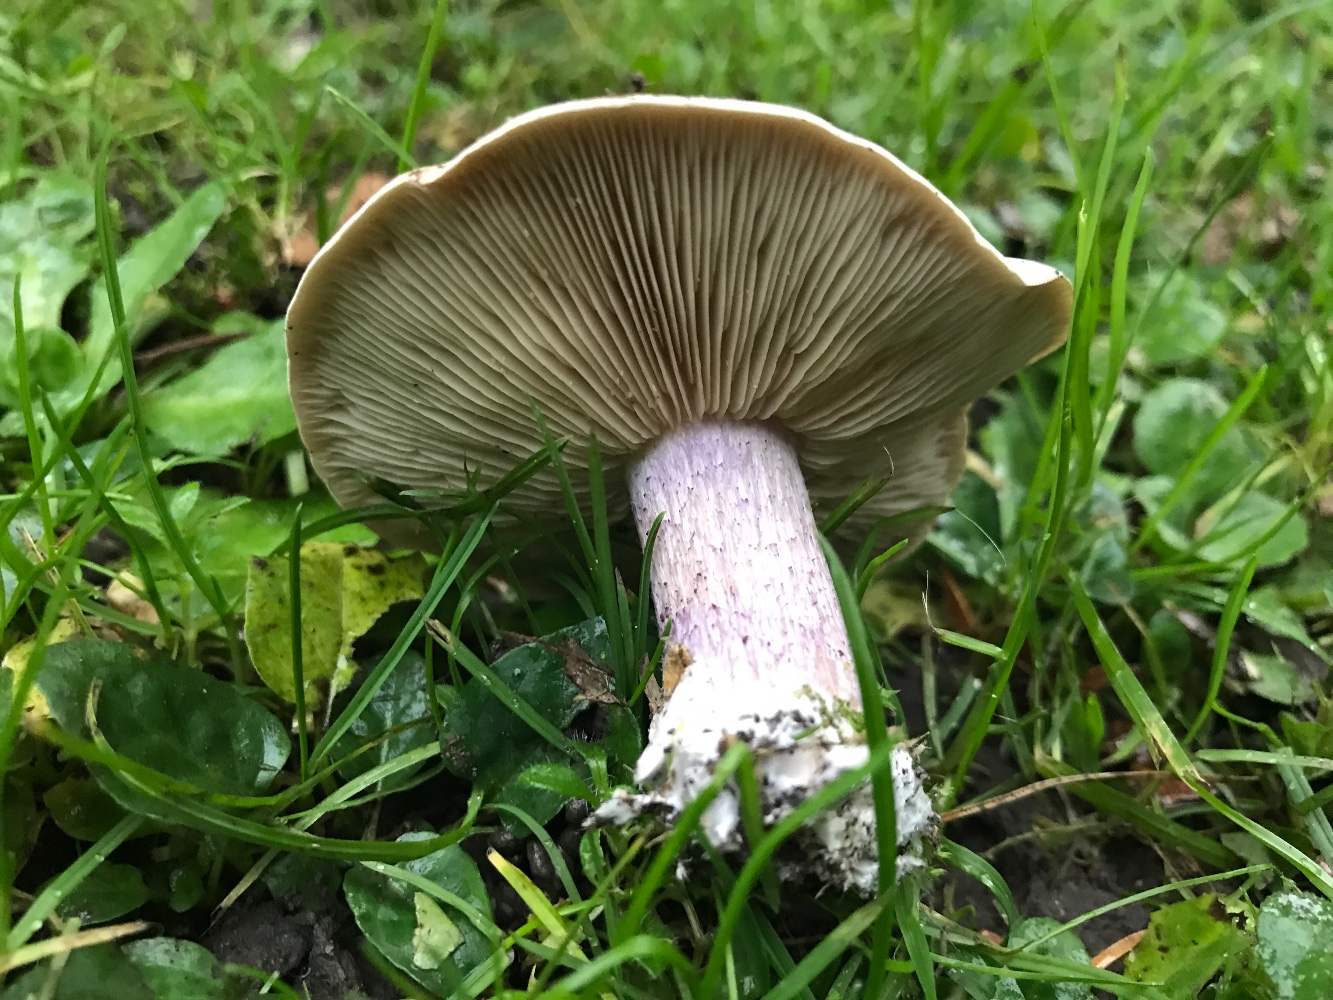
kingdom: Fungi
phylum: Basidiomycota
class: Agaricomycetes
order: Agaricales
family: Tricholomataceae
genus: Lepista
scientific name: Lepista personata
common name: bleg hekseringshat
